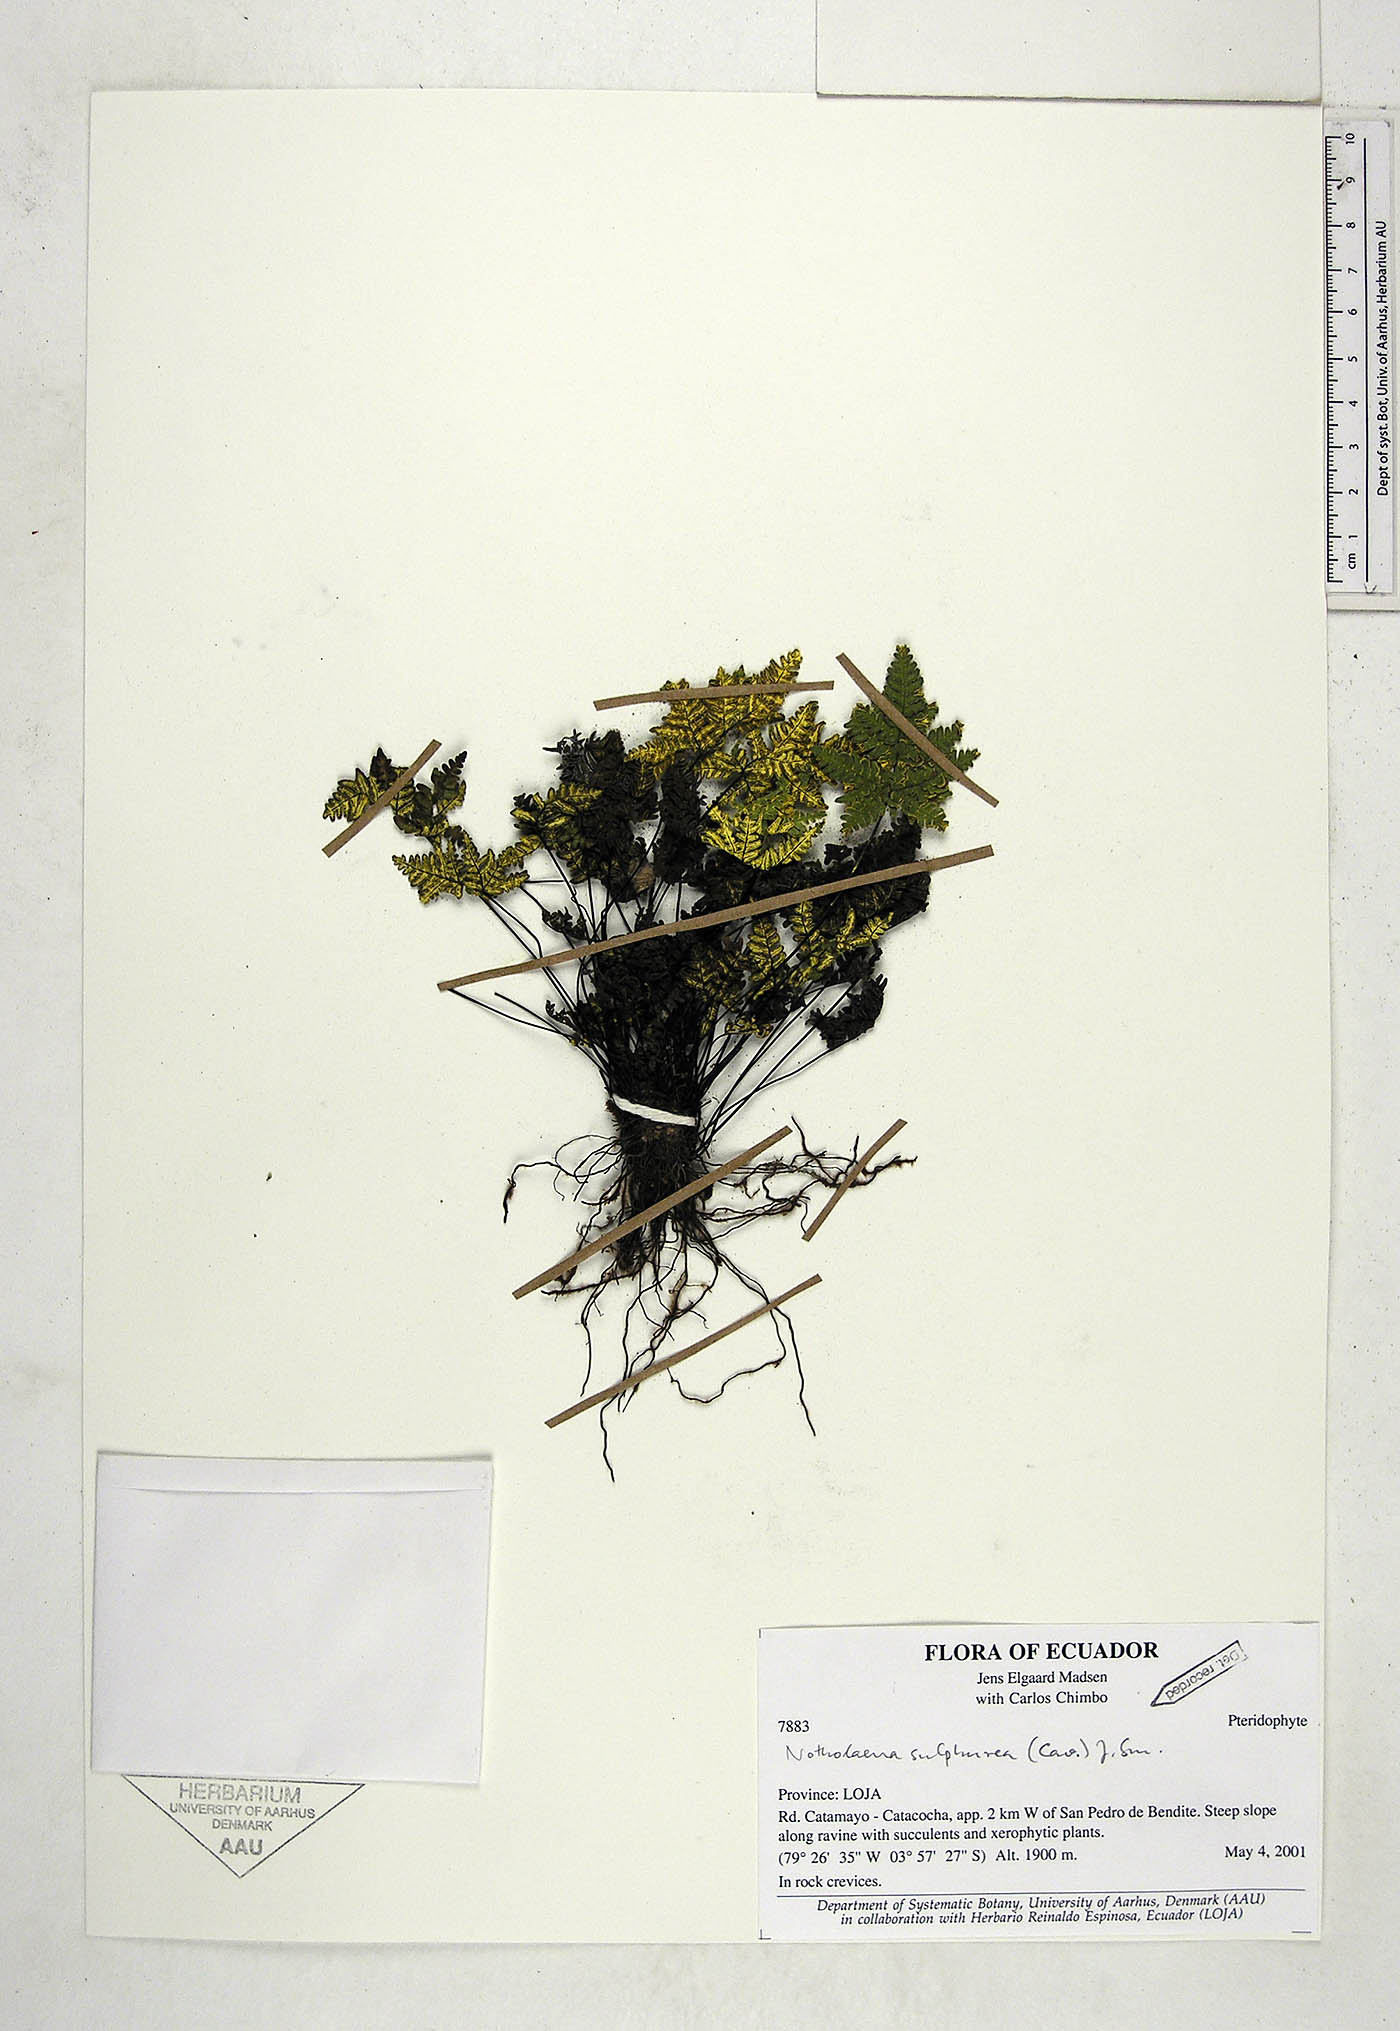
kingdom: Plantae
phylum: Tracheophyta
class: Polypodiopsida
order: Polypodiales
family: Pteridaceae
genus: Notholaena
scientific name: Notholaena sulphurea
